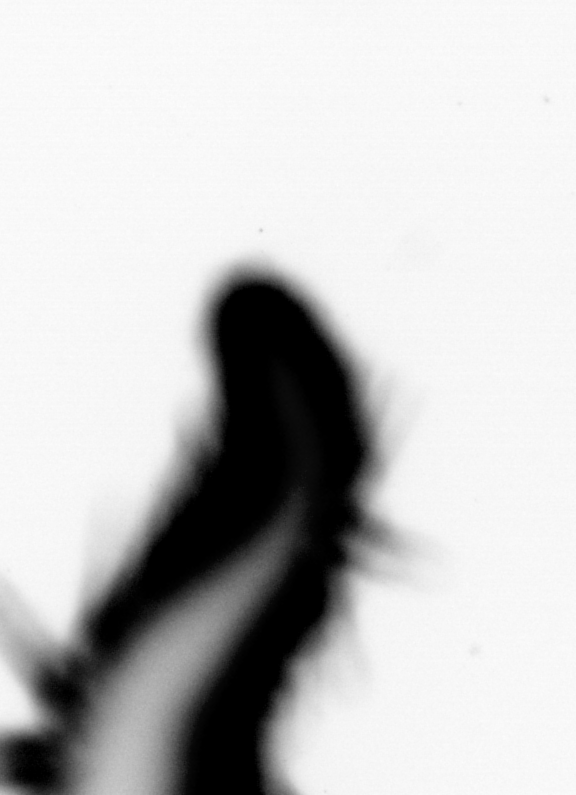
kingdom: Animalia
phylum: Annelida
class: Polychaeta
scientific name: Polychaeta
